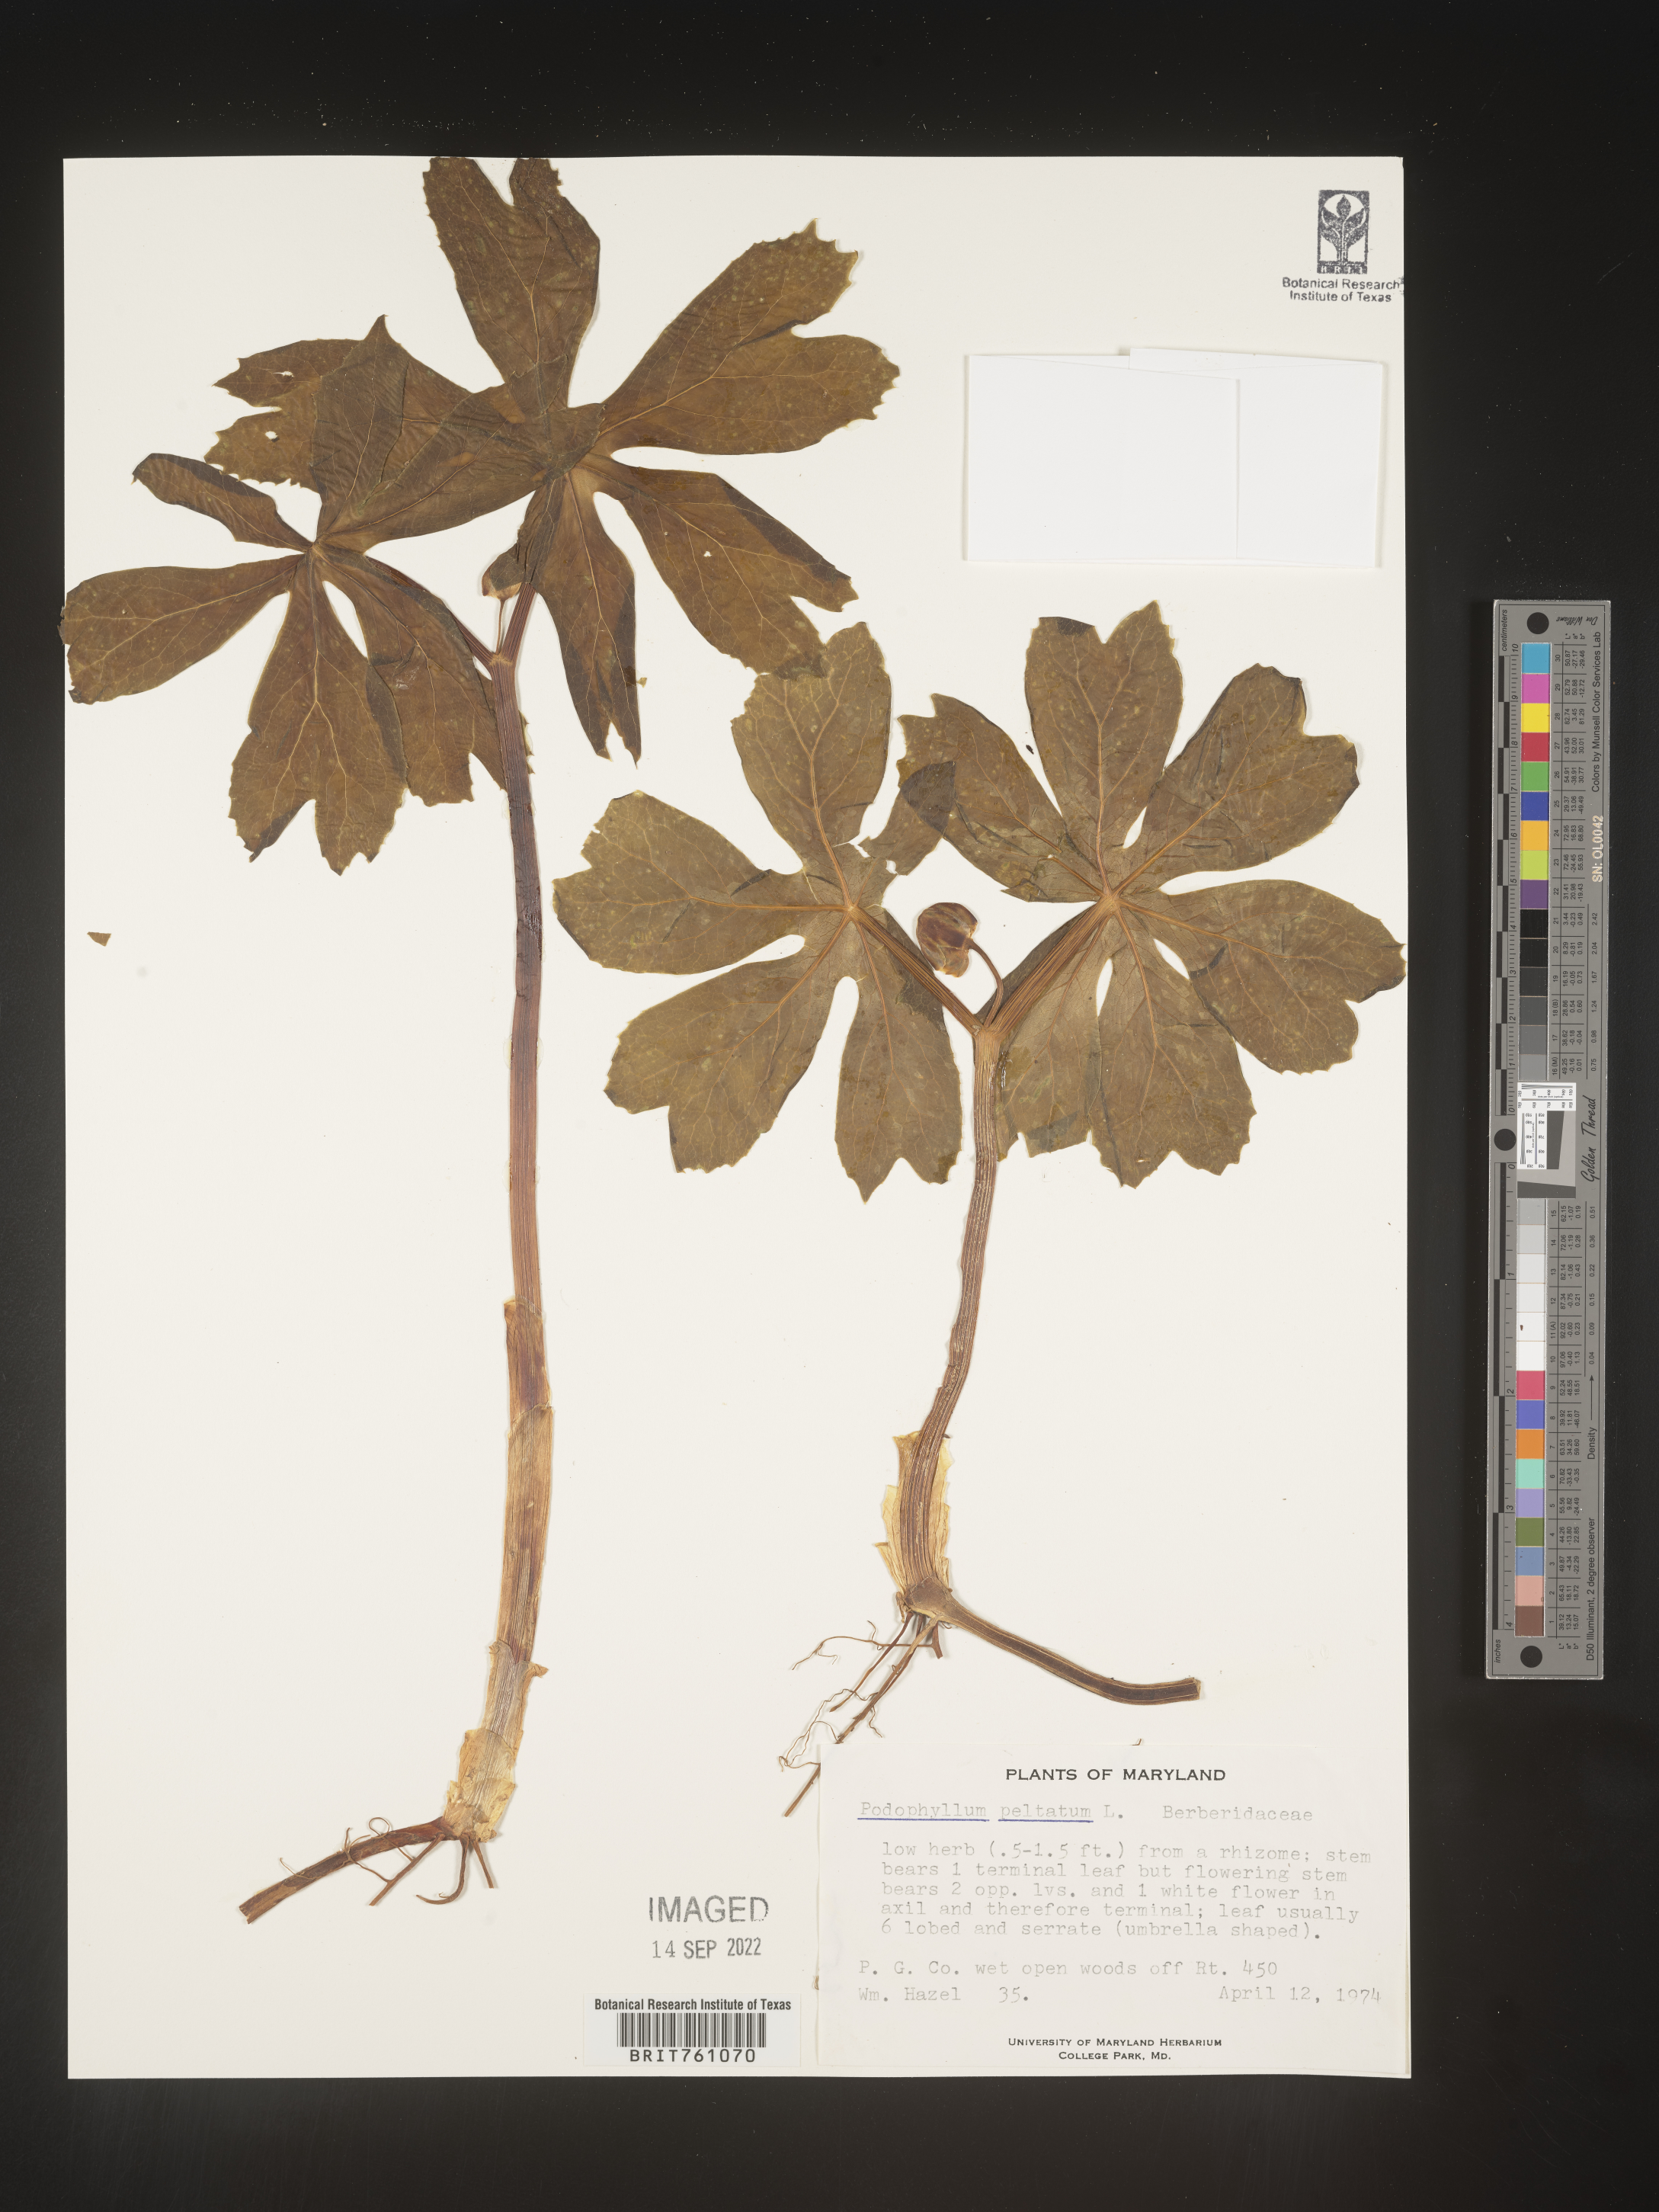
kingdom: Plantae
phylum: Tracheophyta
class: Magnoliopsida
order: Ranunculales
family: Berberidaceae
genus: Podophyllum
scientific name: Podophyllum peltatum
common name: Wild mandrake
